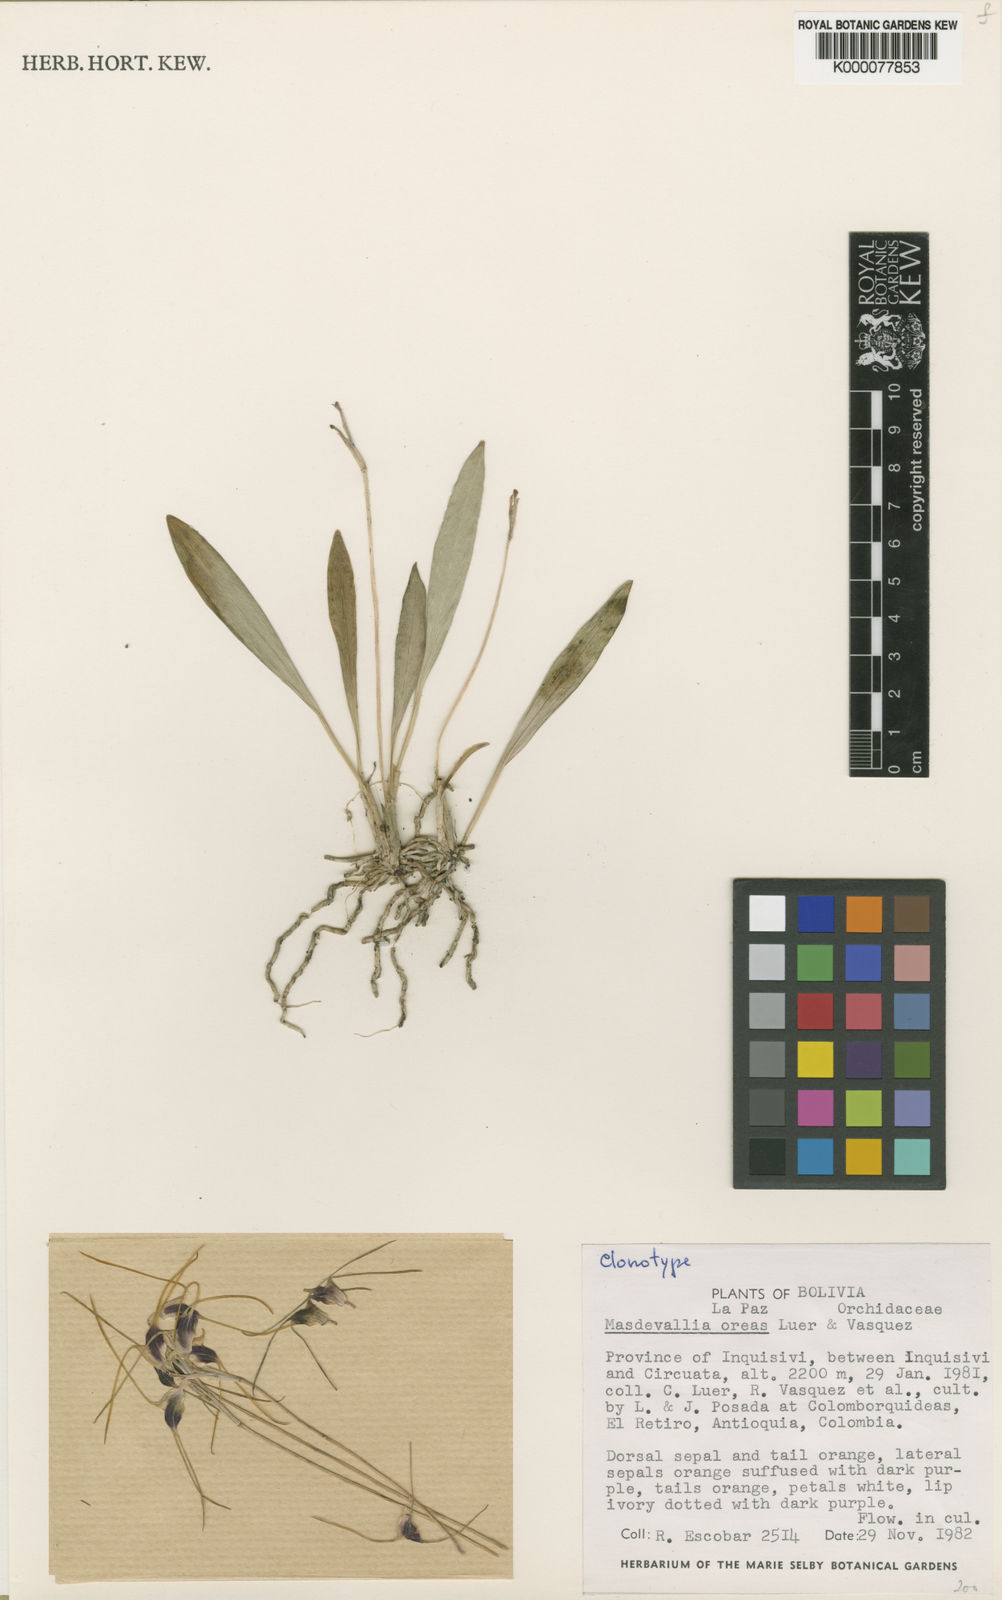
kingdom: Plantae
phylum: Tracheophyta
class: Liliopsida
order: Asparagales
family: Orchidaceae
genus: Masdevallia
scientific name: Masdevallia
